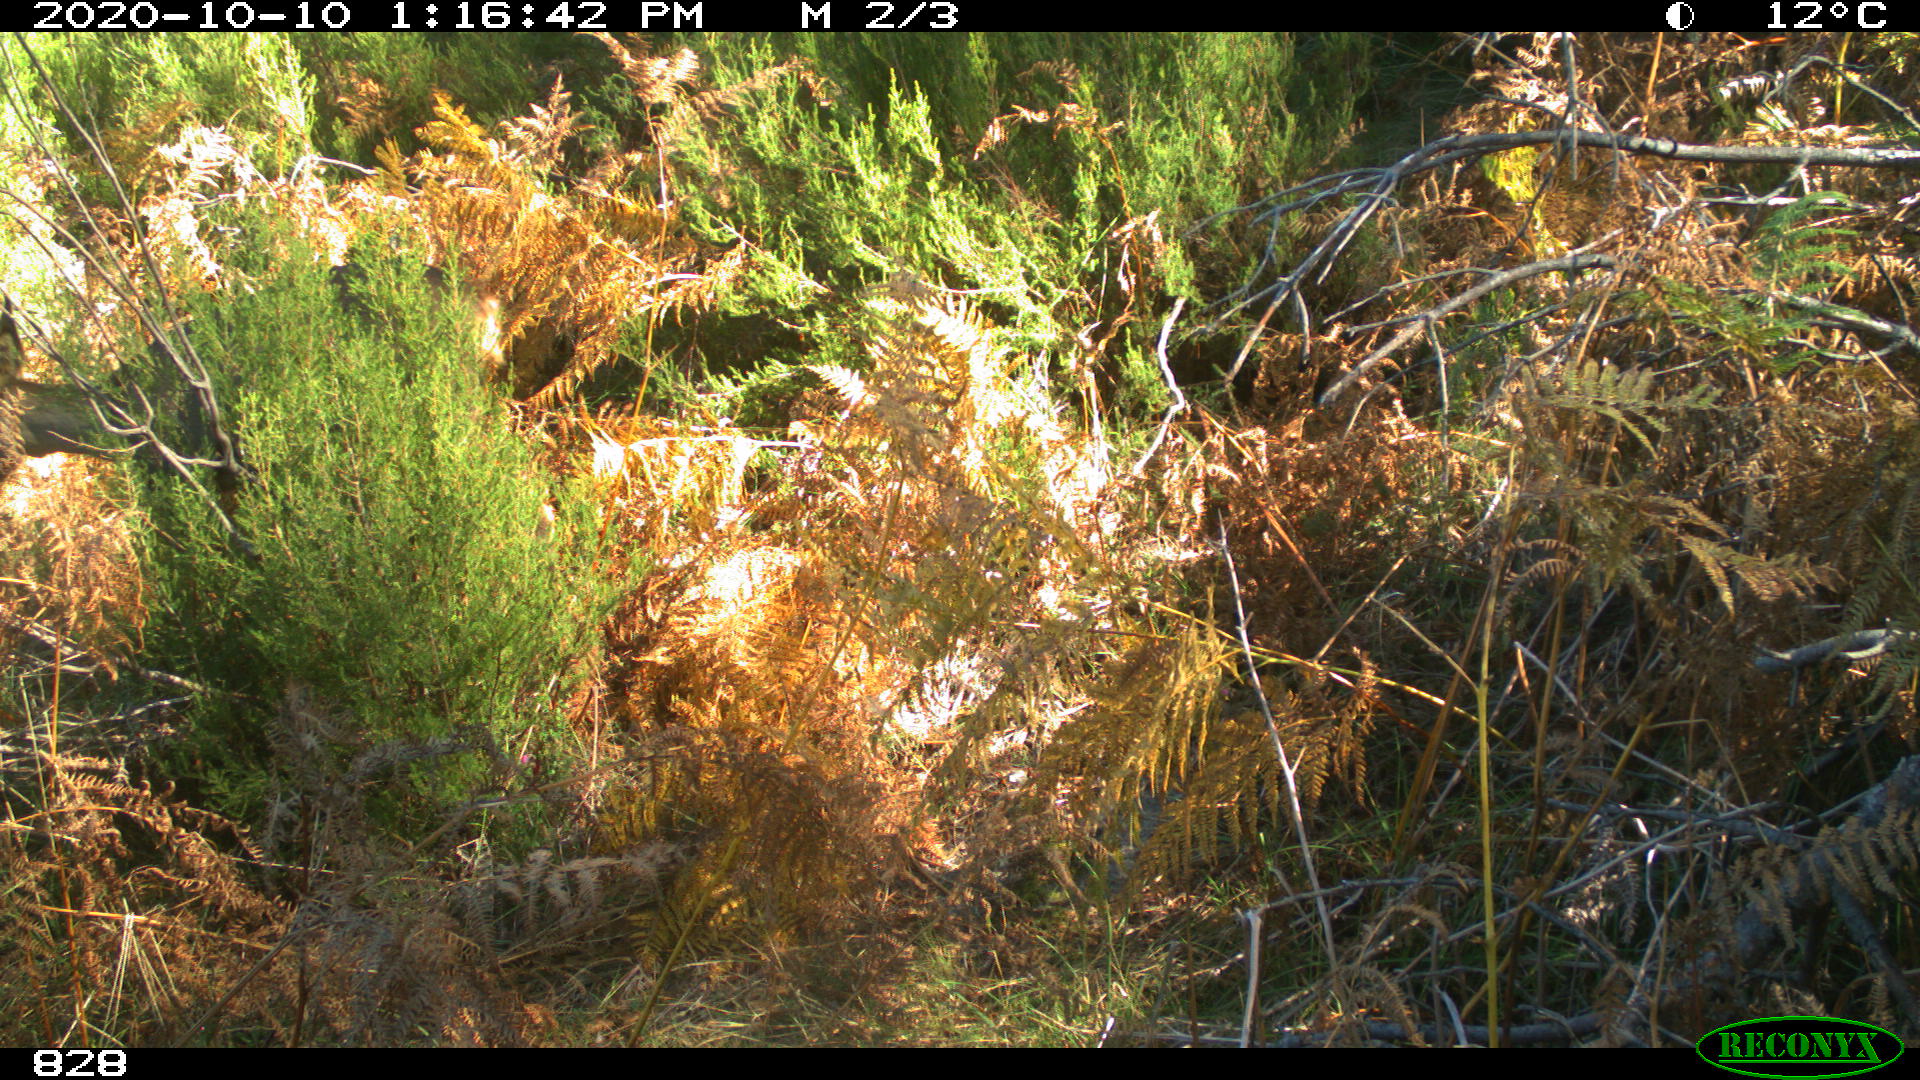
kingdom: Animalia
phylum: Chordata
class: Mammalia
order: Artiodactyla
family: Cervidae
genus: Capreolus
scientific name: Capreolus capreolus
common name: Western roe deer
